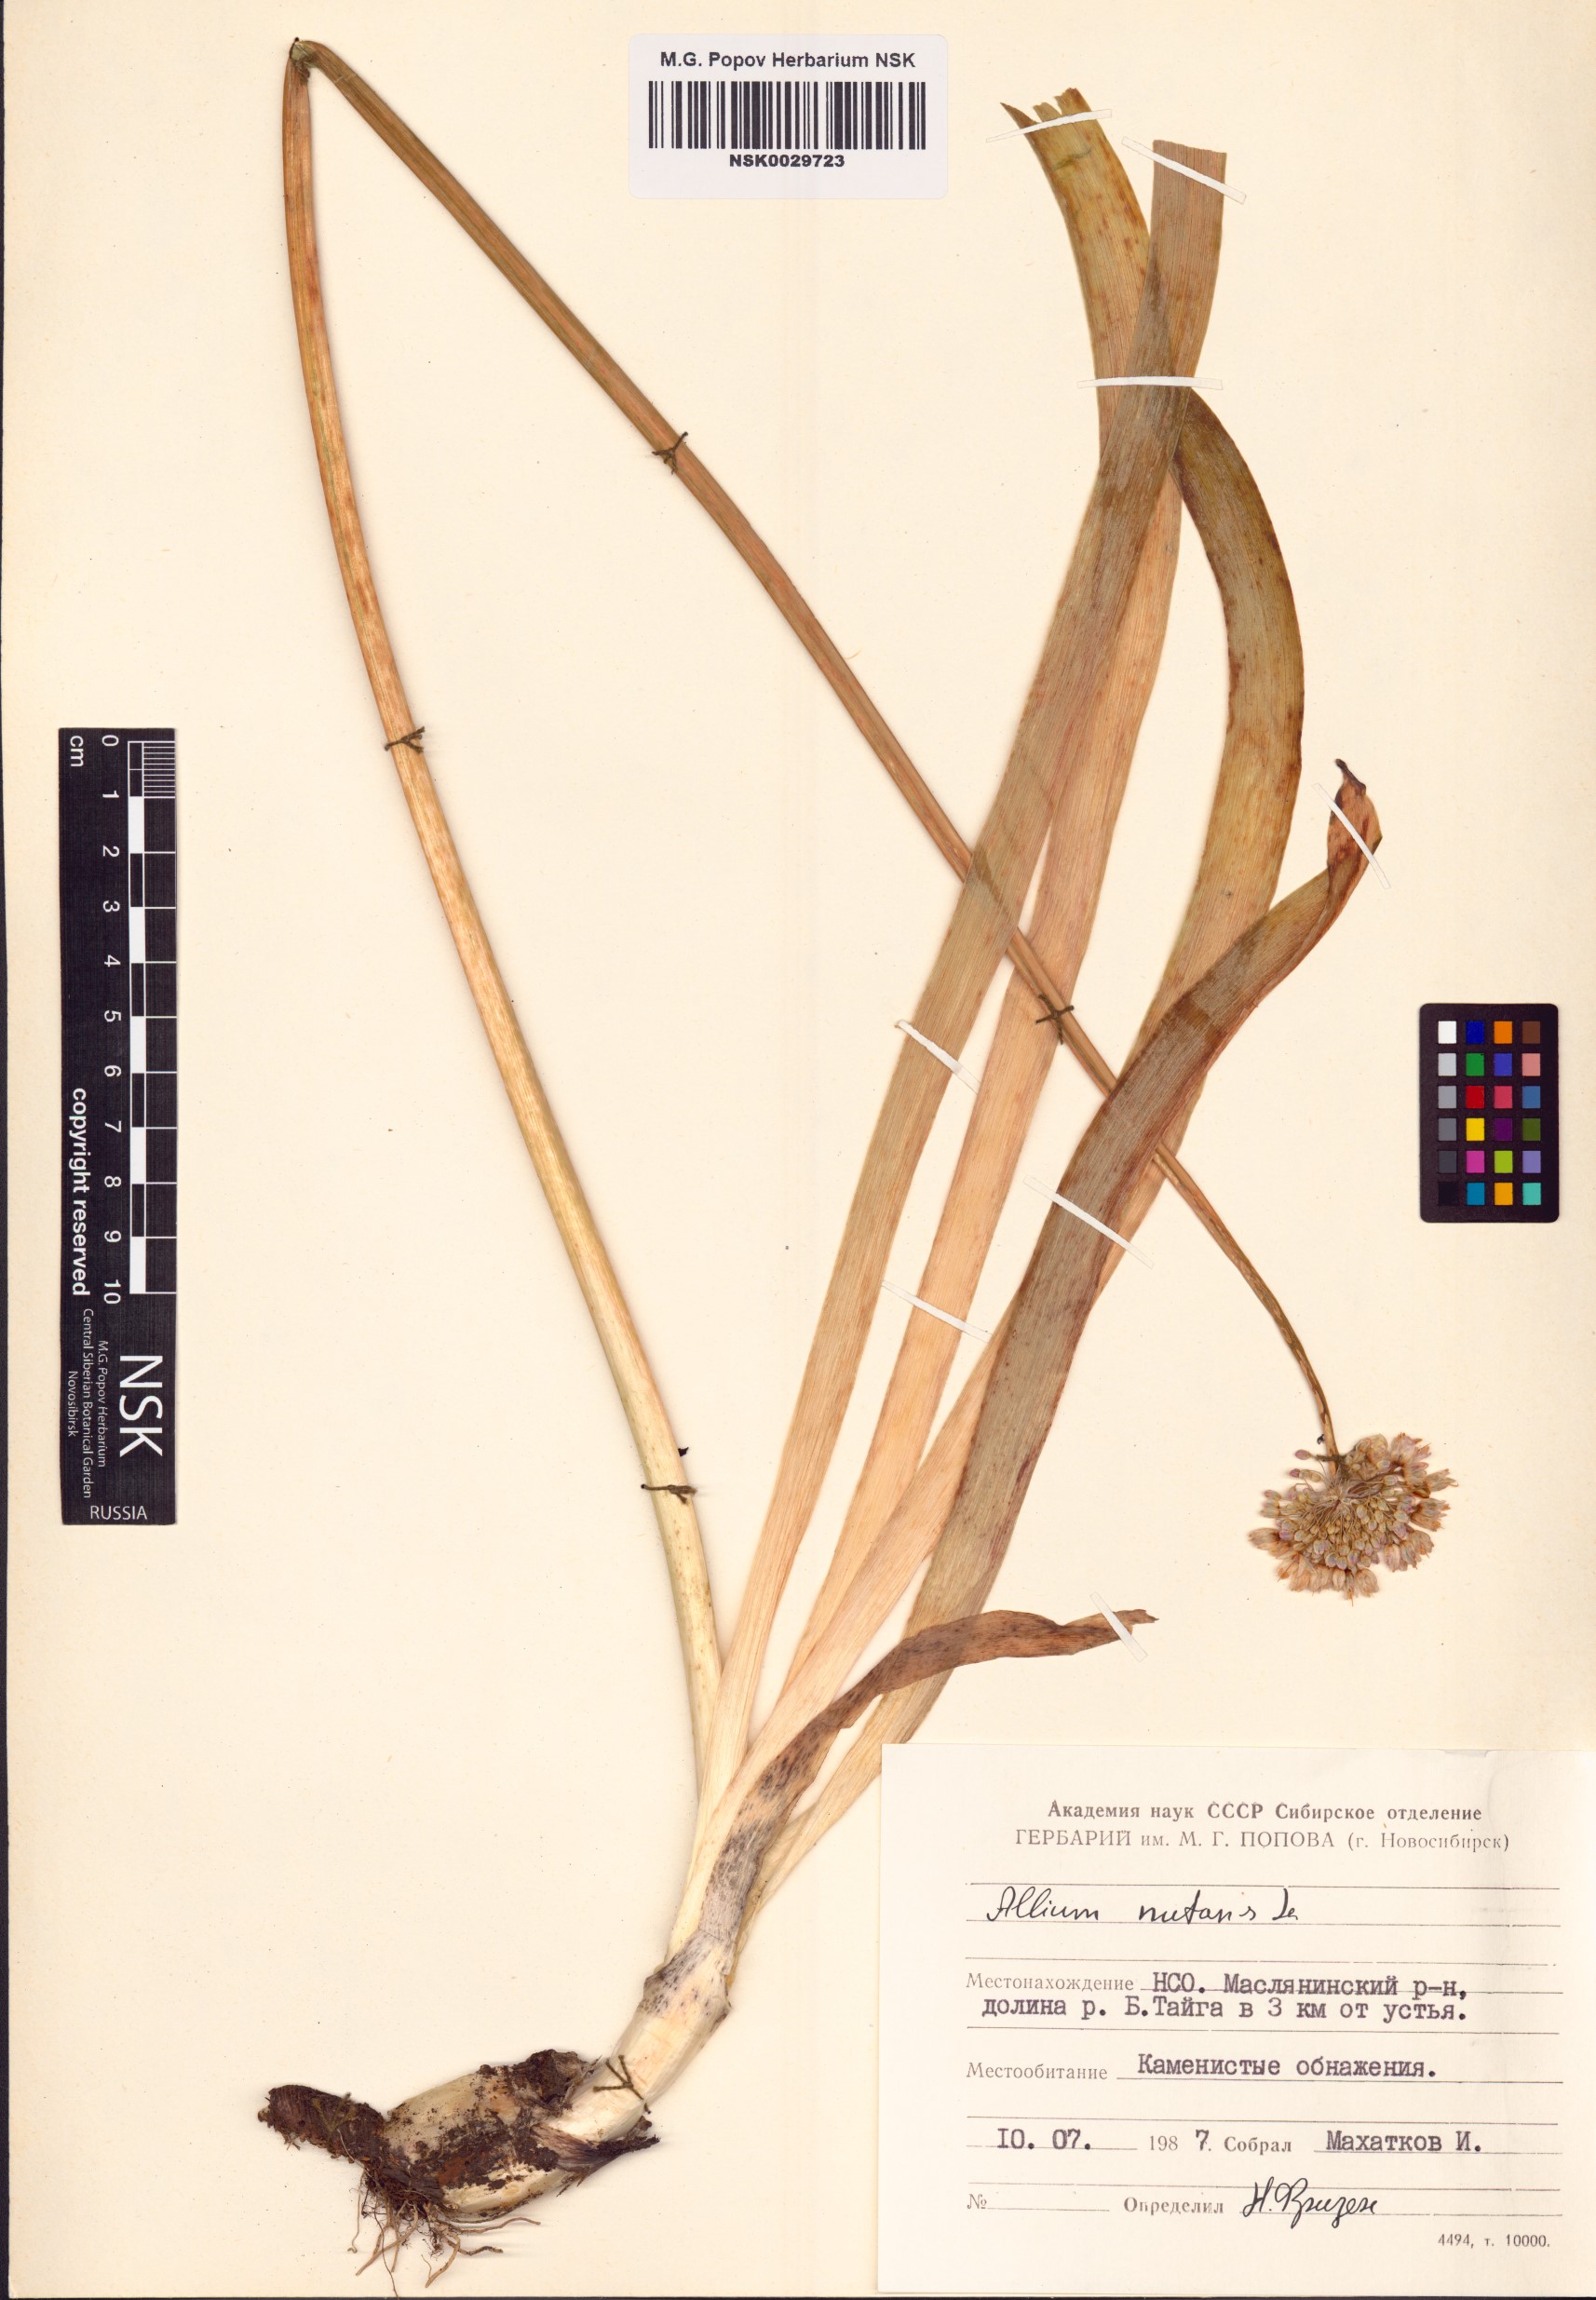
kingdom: Plantae
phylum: Tracheophyta
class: Liliopsida
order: Asparagales
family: Amaryllidaceae
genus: Allium
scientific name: Allium nutans
